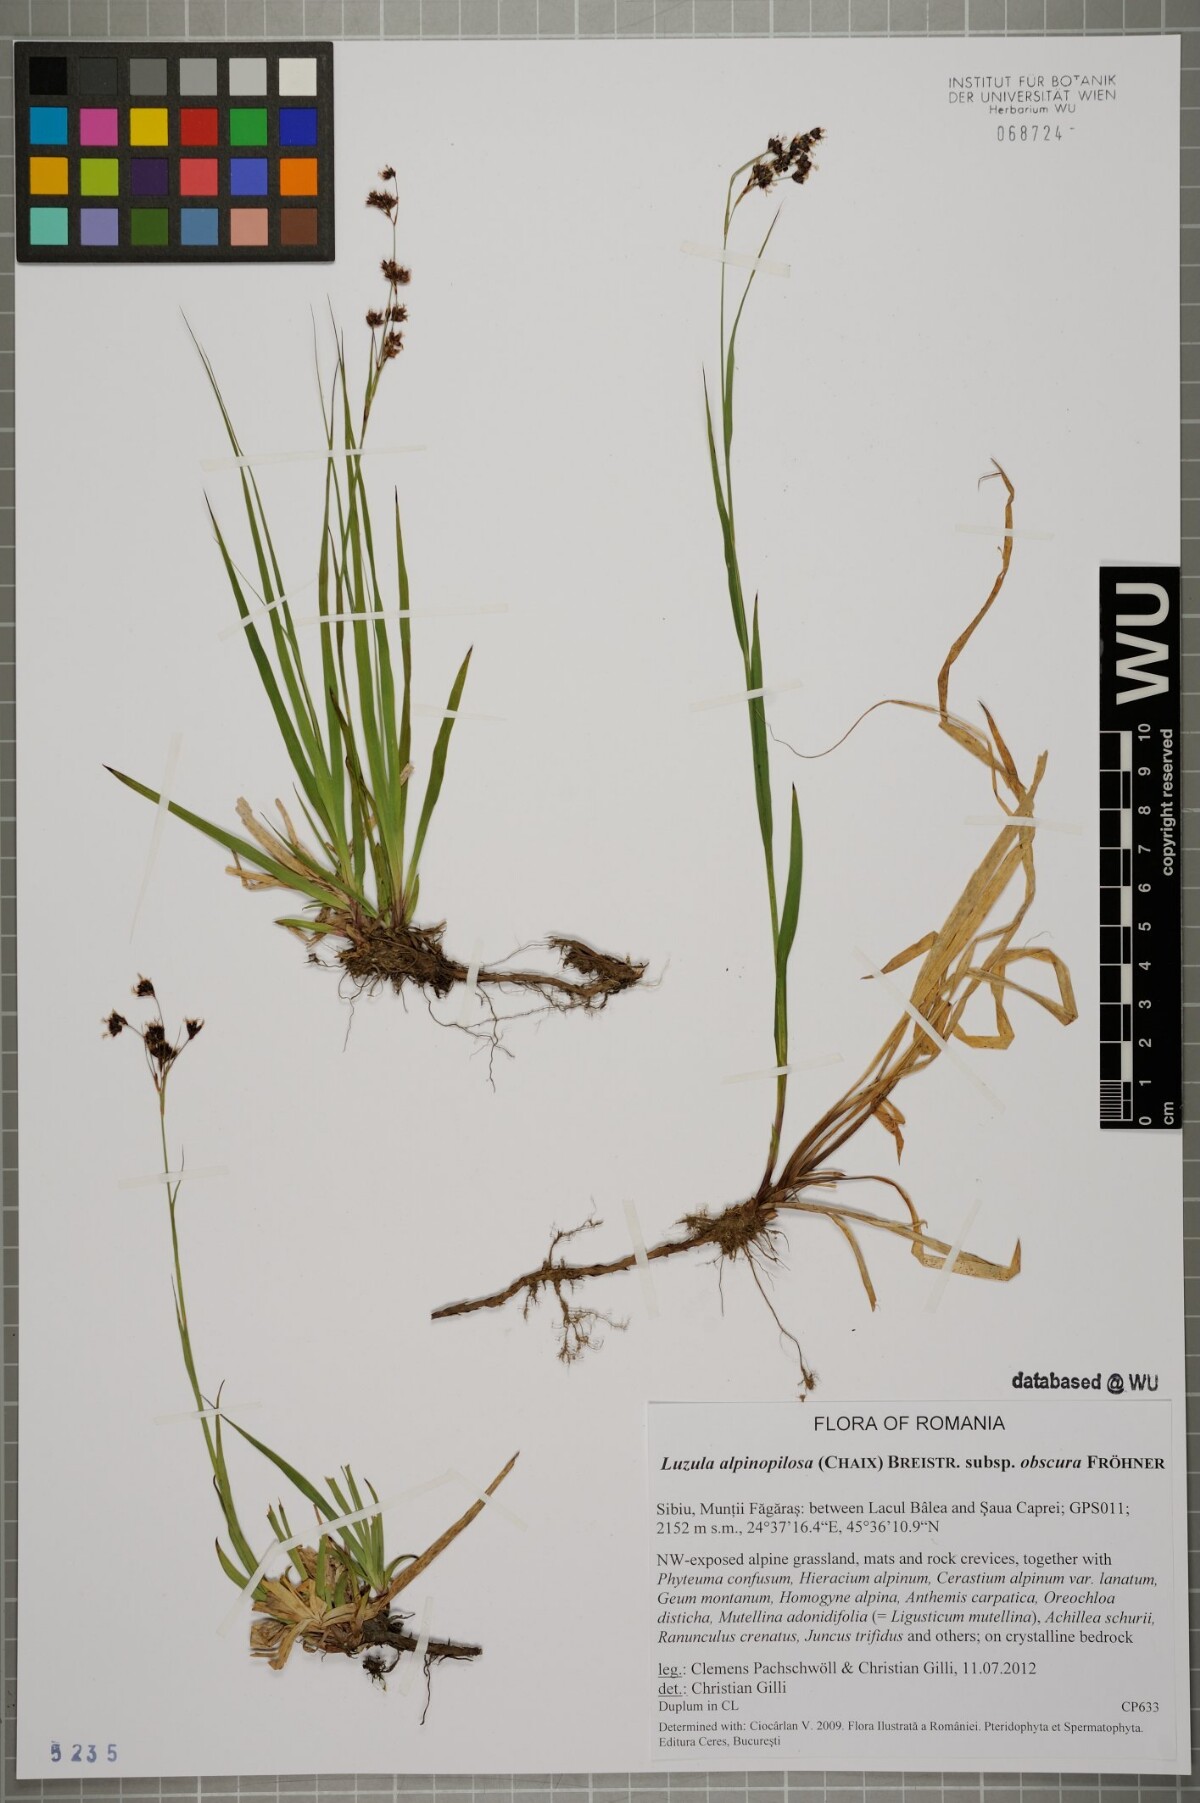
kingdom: Plantae
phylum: Tracheophyta
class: Liliopsida
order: Poales
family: Juncaceae
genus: Luzula
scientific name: Luzula alpinopilosa
